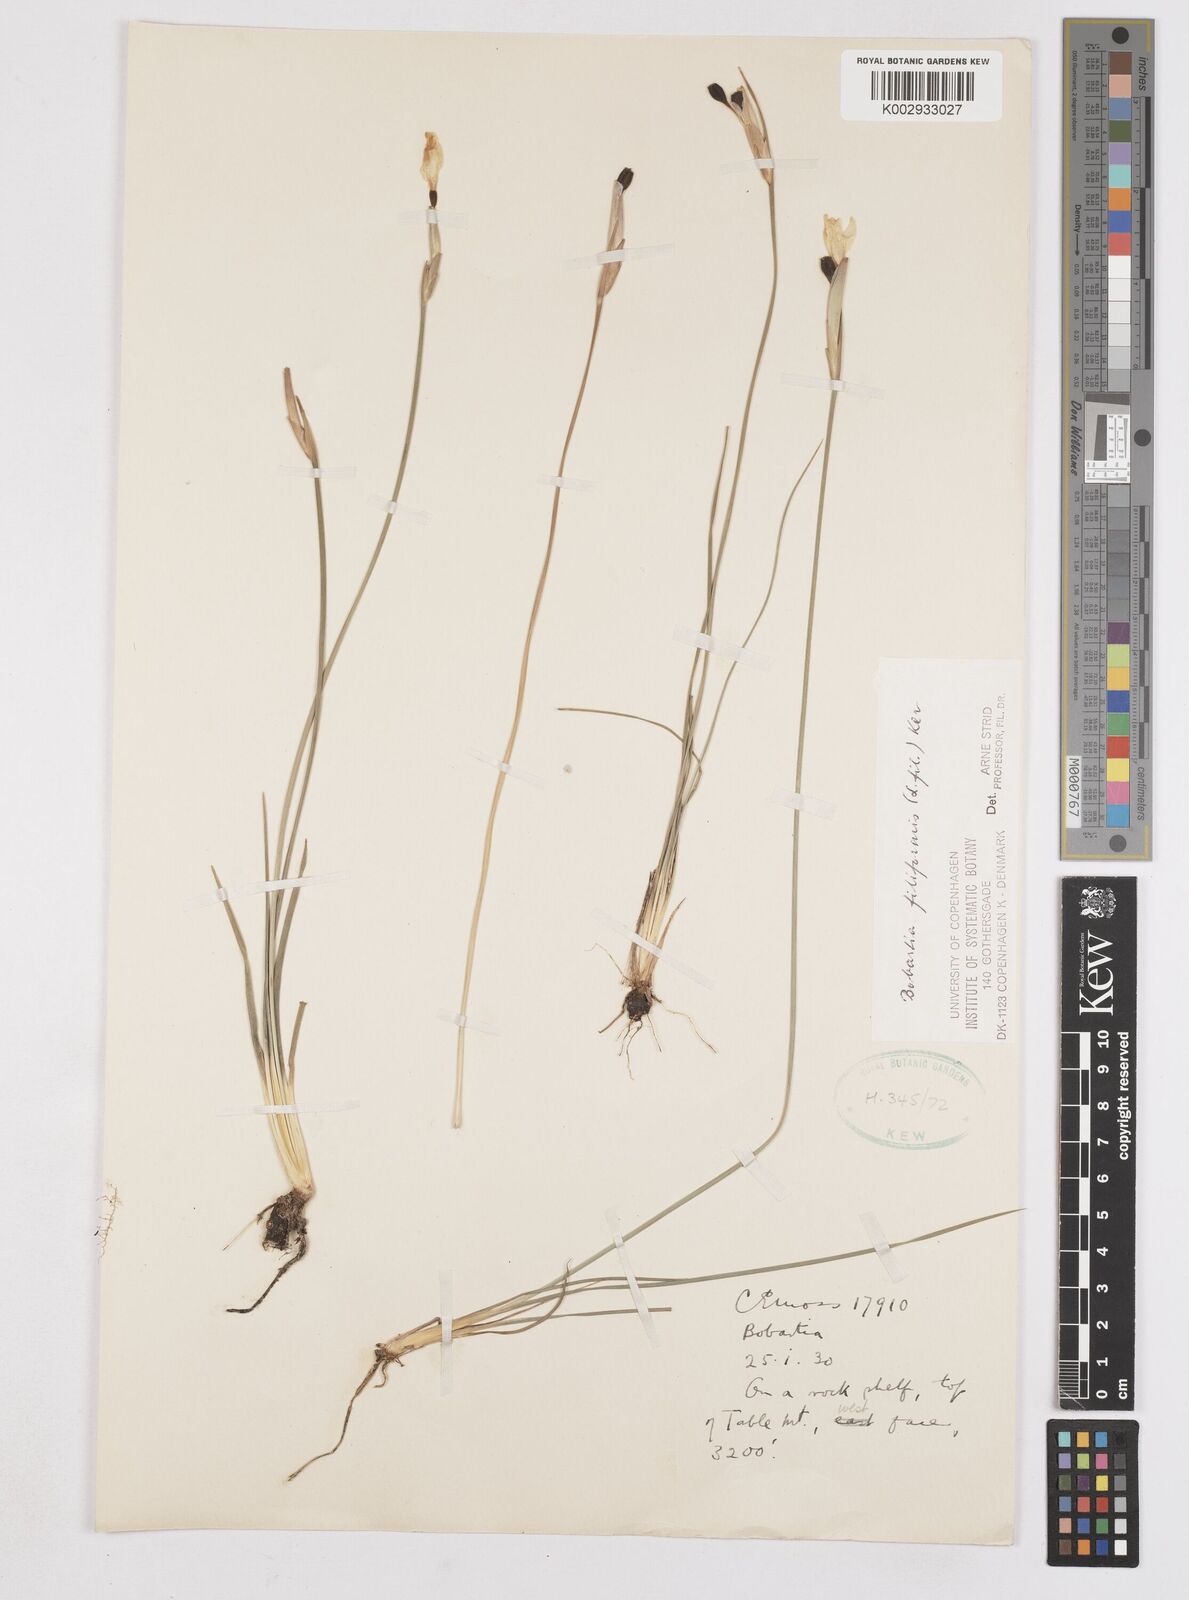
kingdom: Plantae
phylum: Tracheophyta
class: Liliopsida
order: Asparagales
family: Iridaceae
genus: Bobartia
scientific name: Bobartia filiformis
